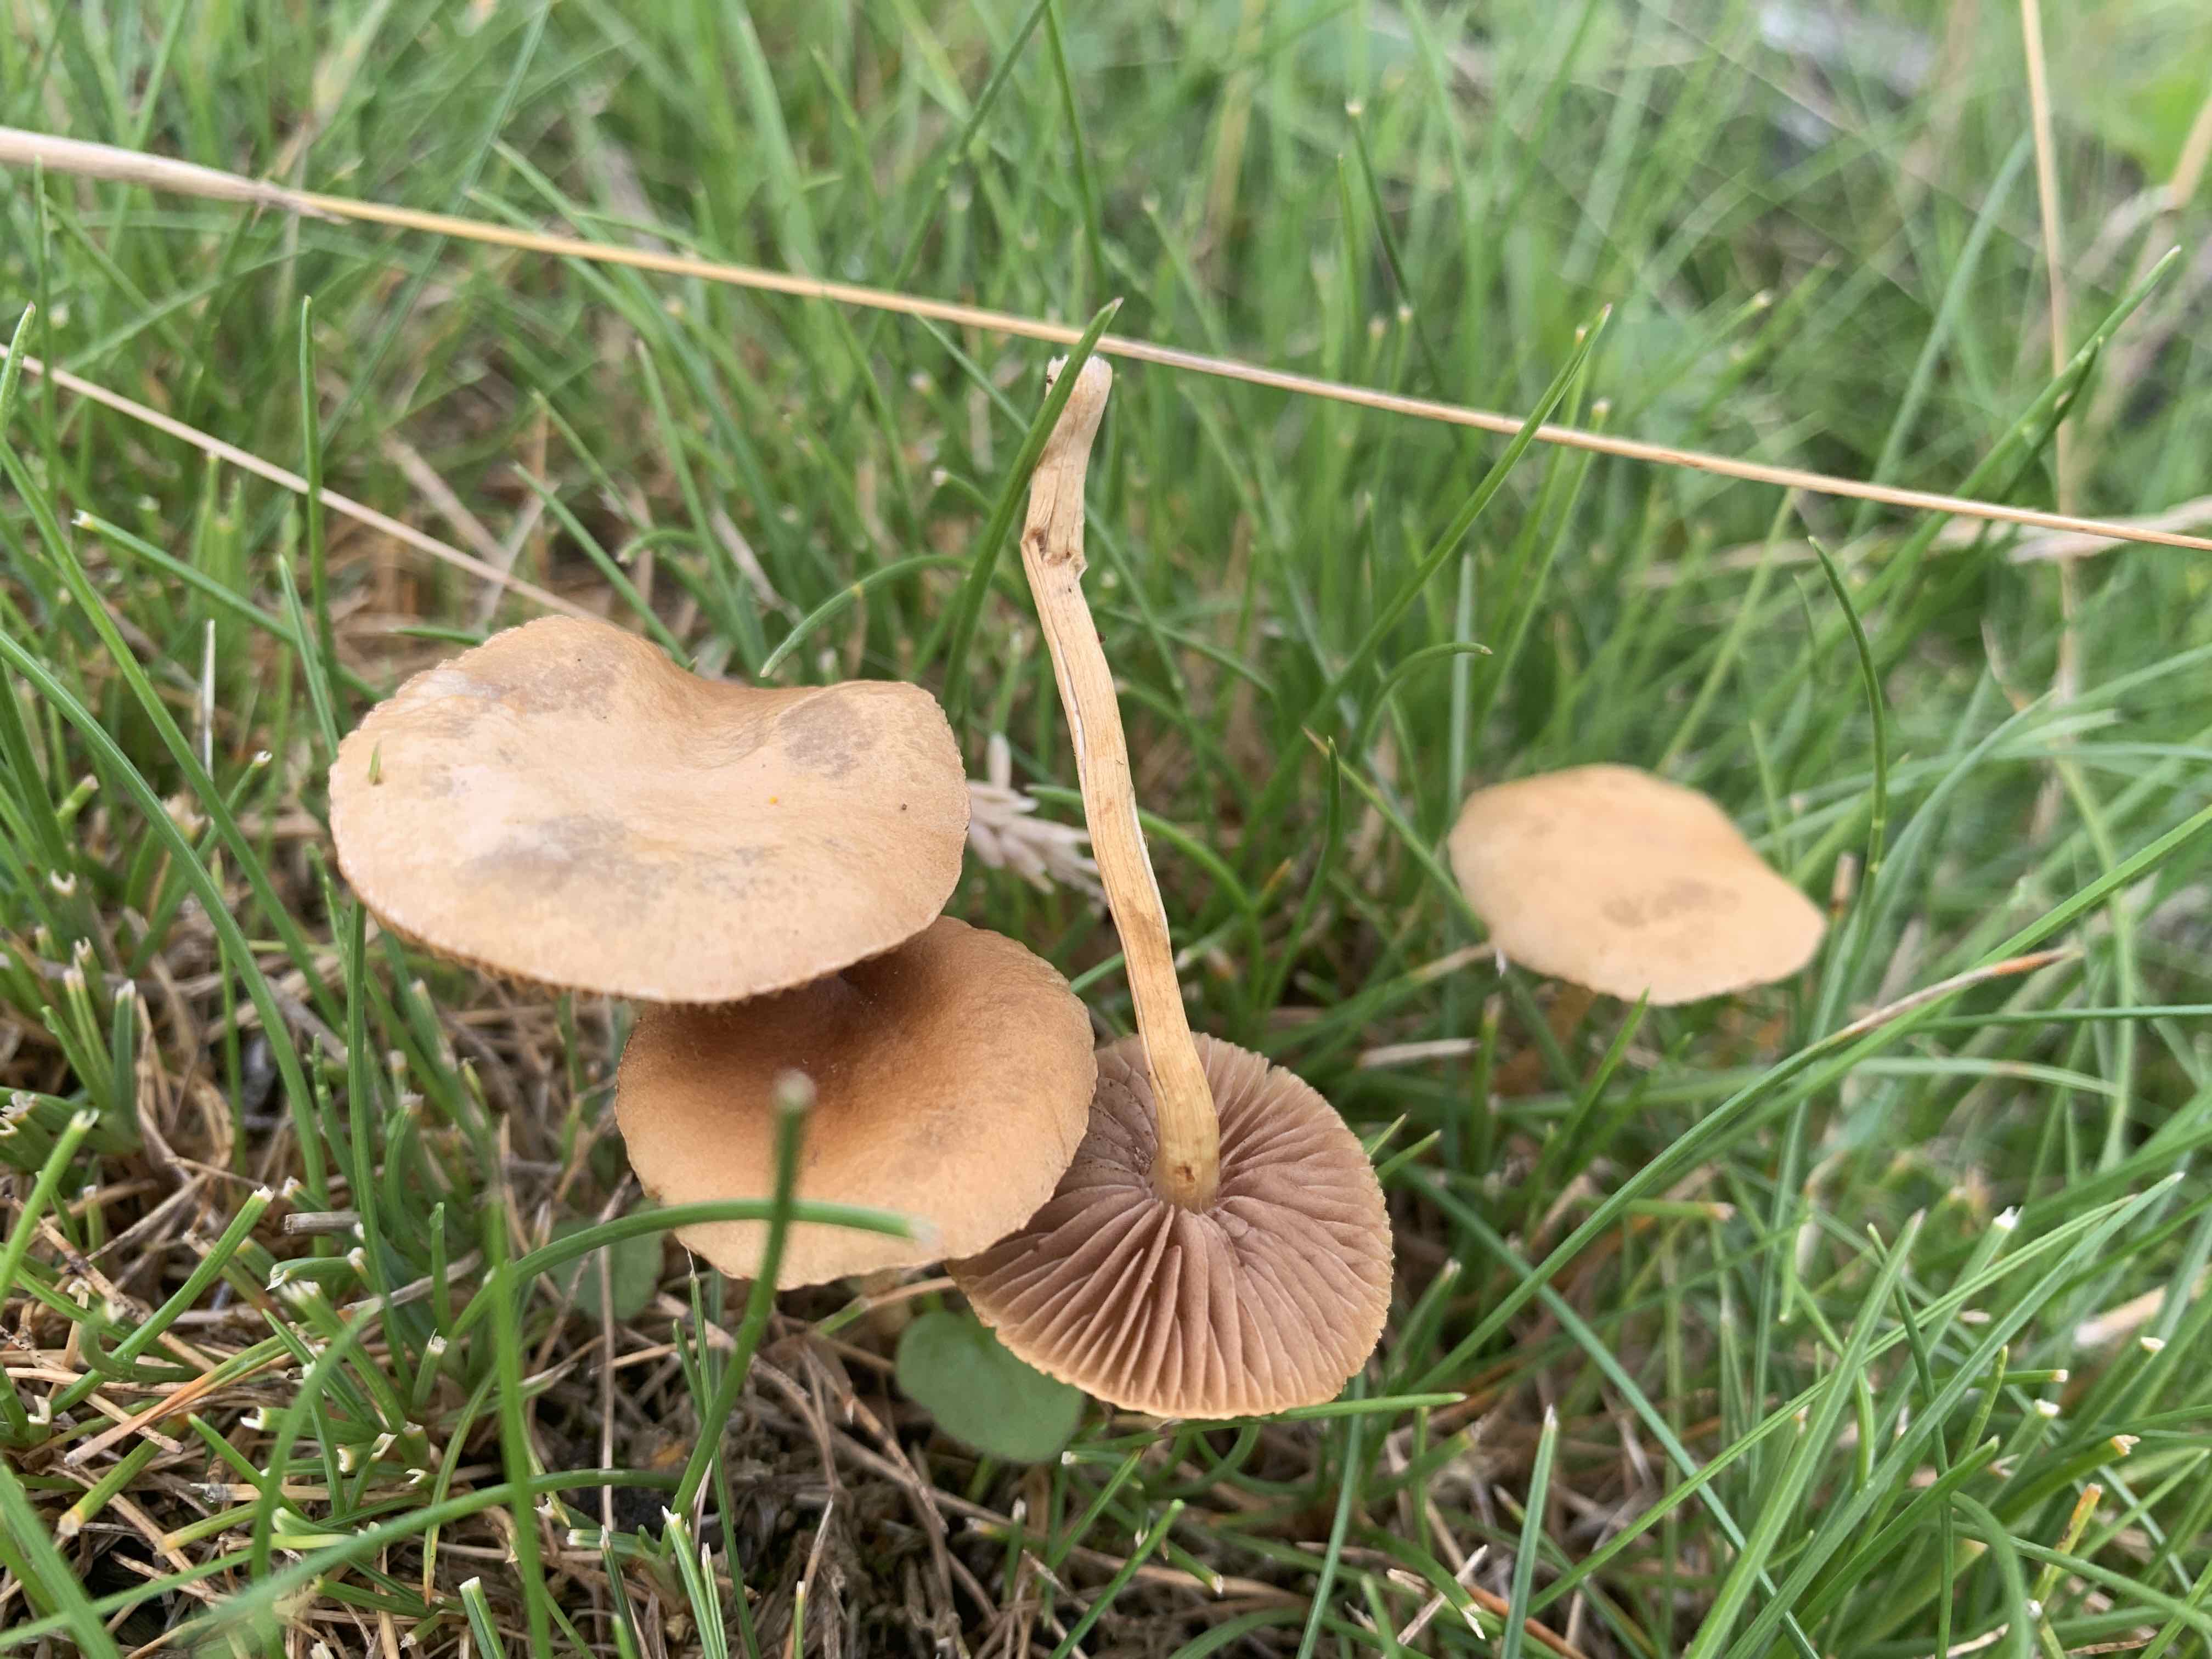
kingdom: Fungi
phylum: Basidiomycota
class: Agaricomycetes
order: Agaricales
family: Strophariaceae
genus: Agrocybe
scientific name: Agrocybe pediades
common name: almindelig agerhat
